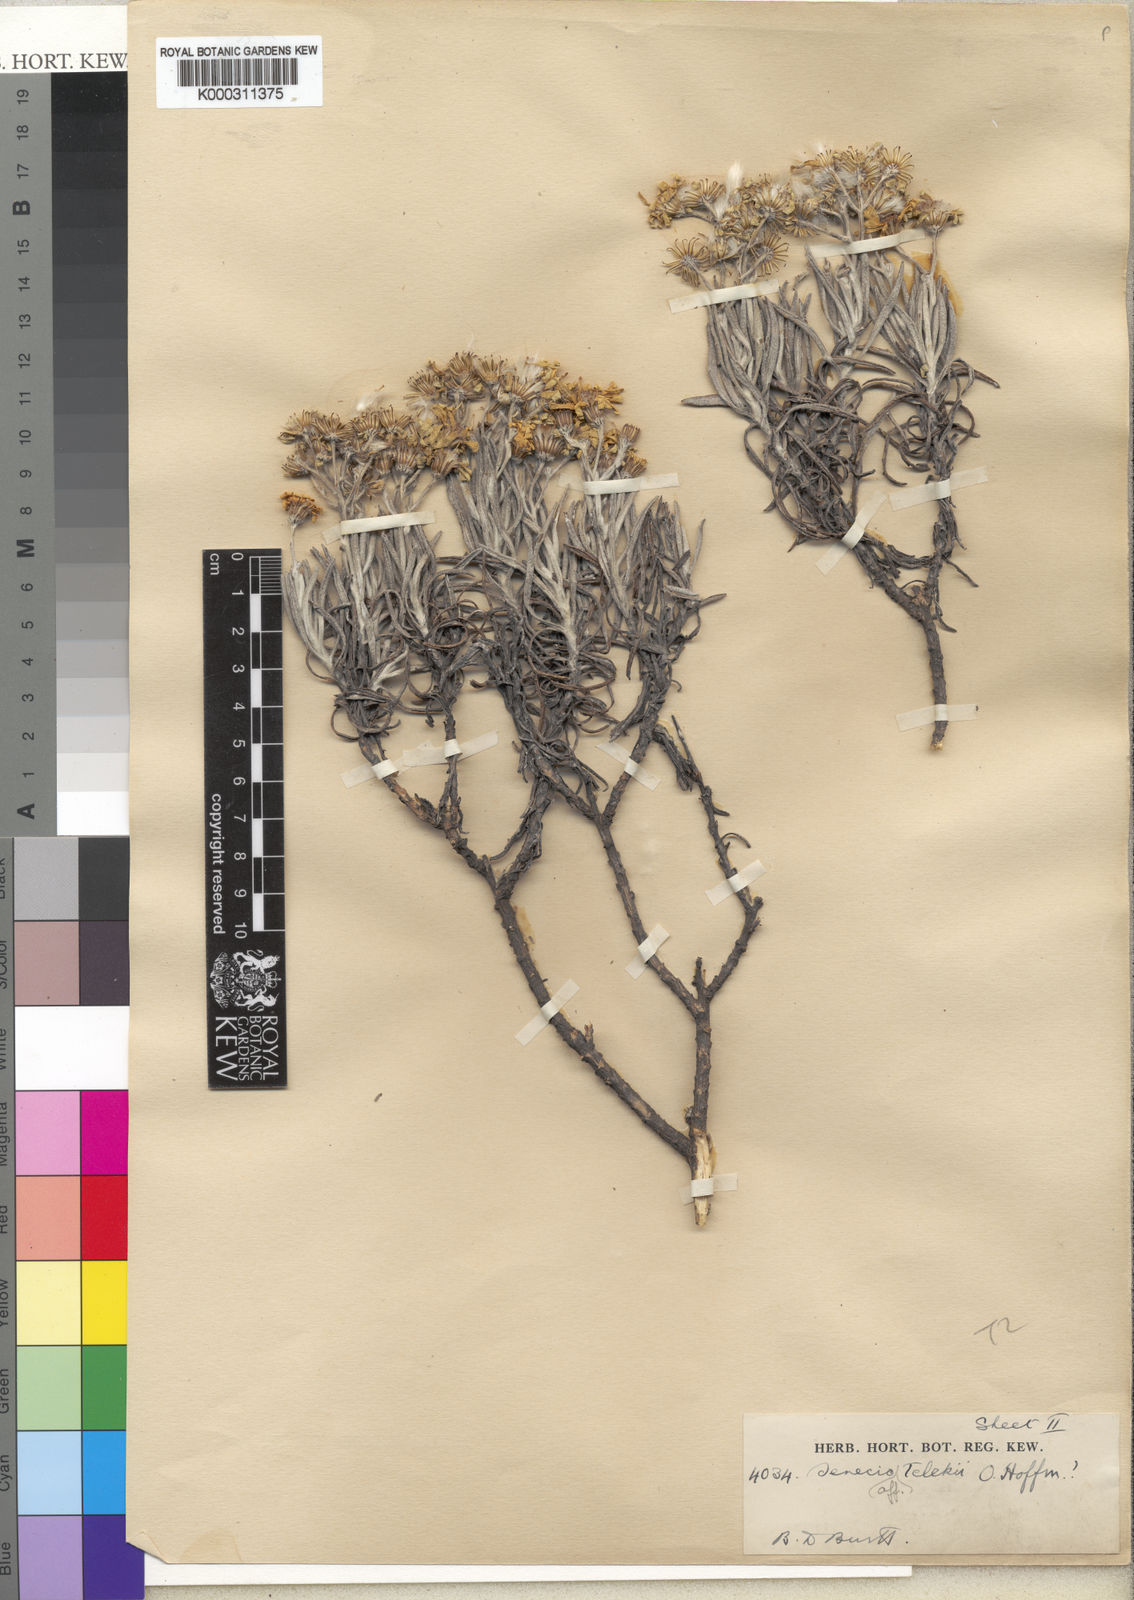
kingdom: Plantae
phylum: Tracheophyta
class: Magnoliopsida
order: Asterales
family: Asteraceae
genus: Senecio
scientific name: Senecio
